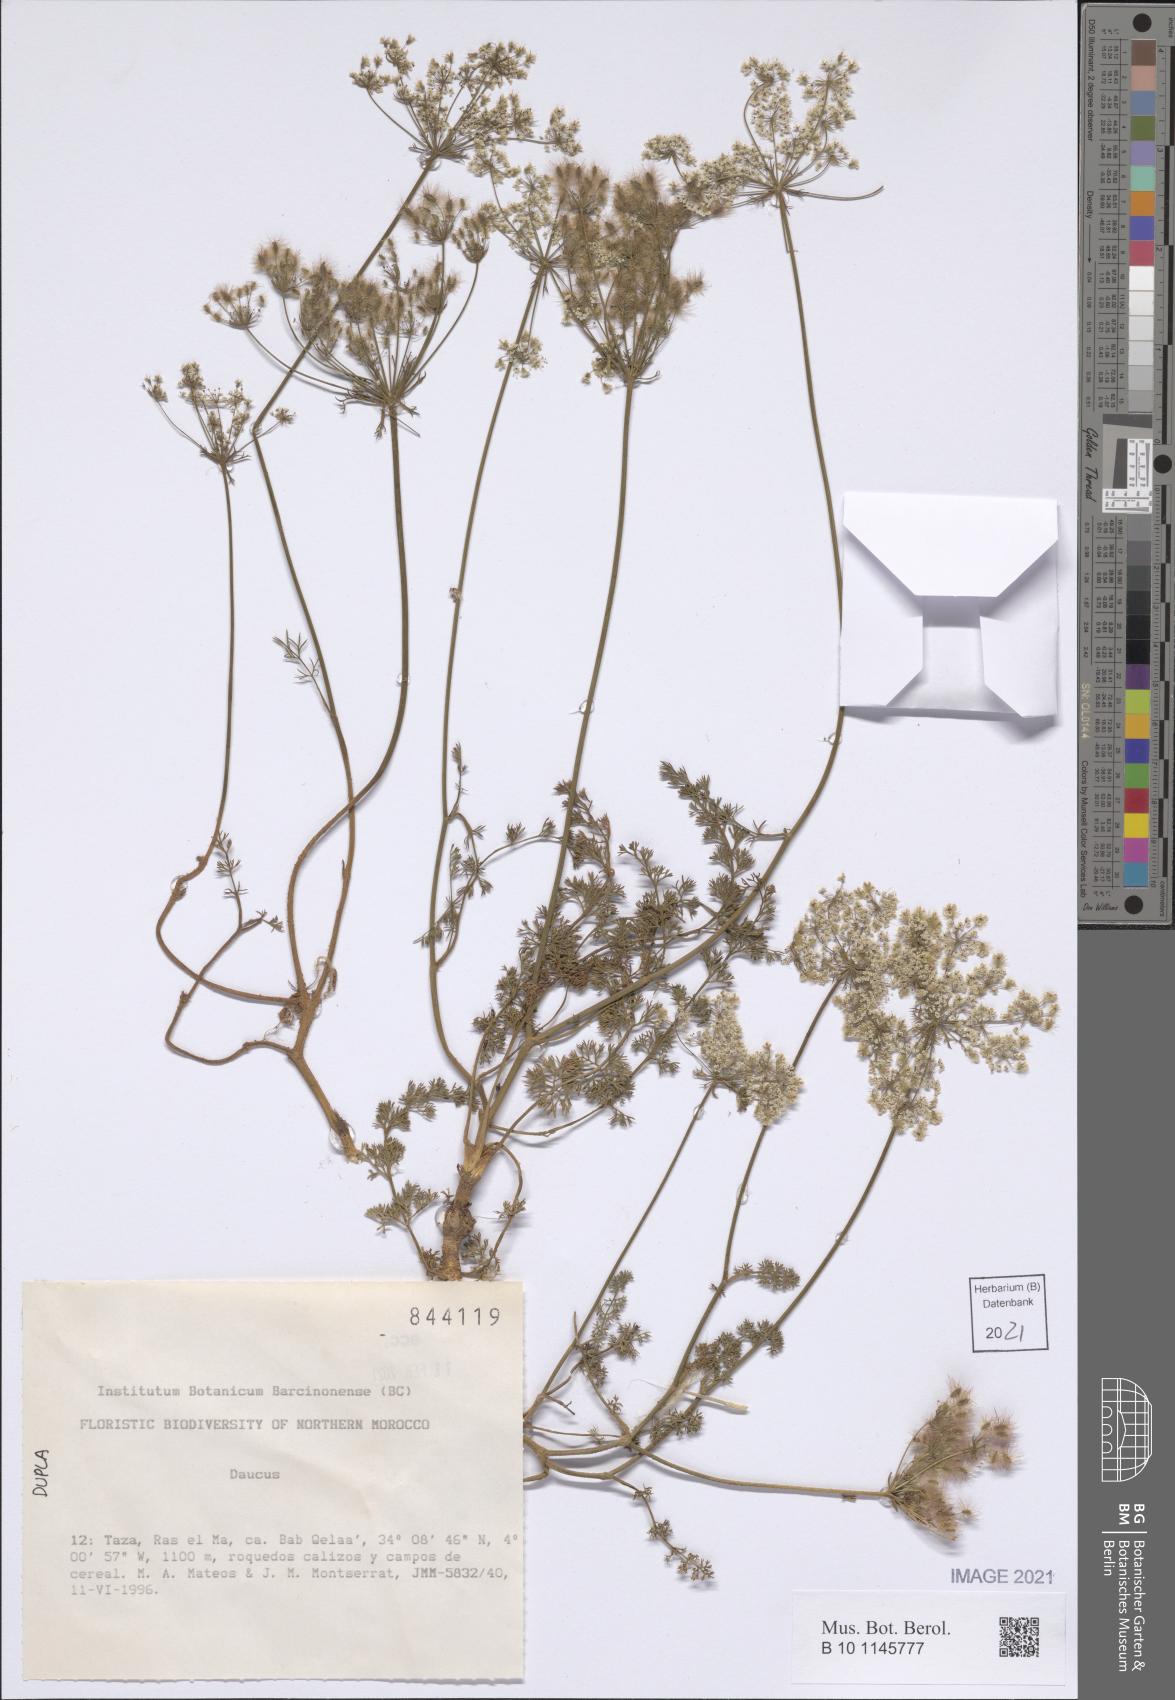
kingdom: Plantae
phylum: Tracheophyta
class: Magnoliopsida
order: Apiales
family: Apiaceae
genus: Daucus
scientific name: Daucus
